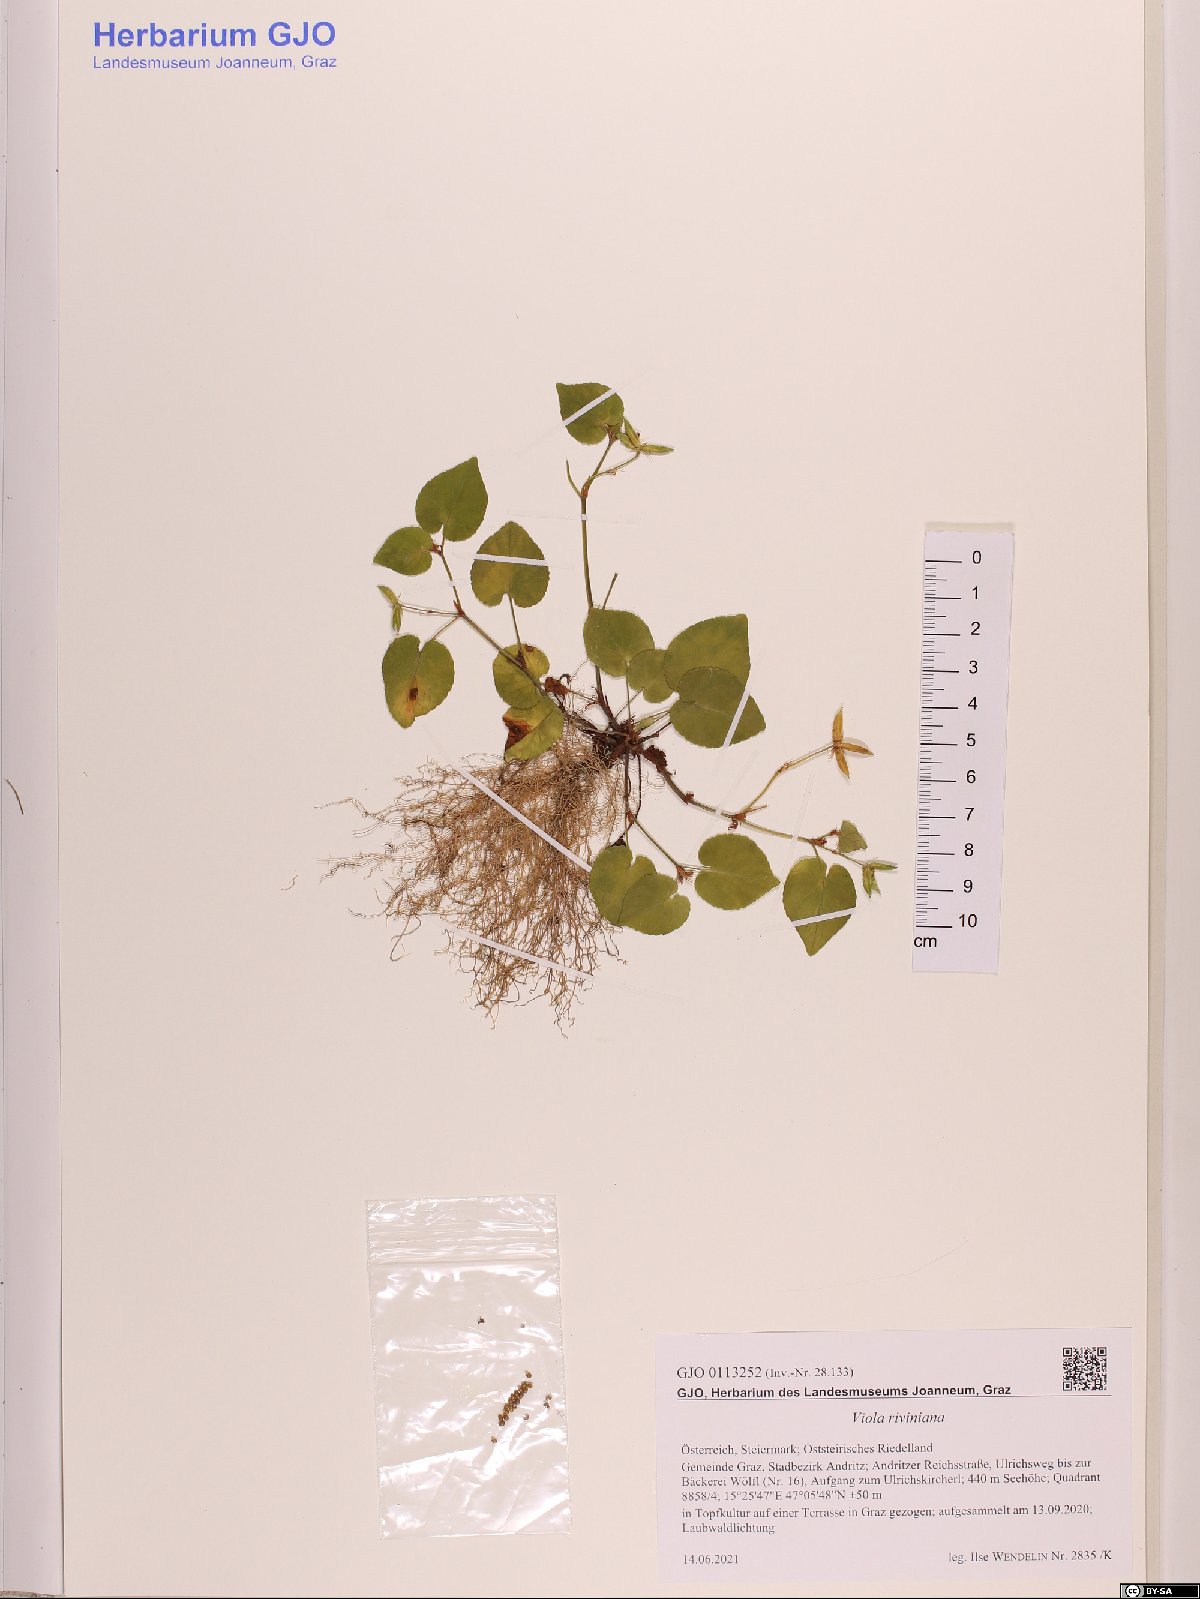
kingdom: Plantae
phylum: Tracheophyta
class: Magnoliopsida
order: Malpighiales
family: Violaceae
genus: Viola
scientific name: Viola riviniana
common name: Common dog-violet
